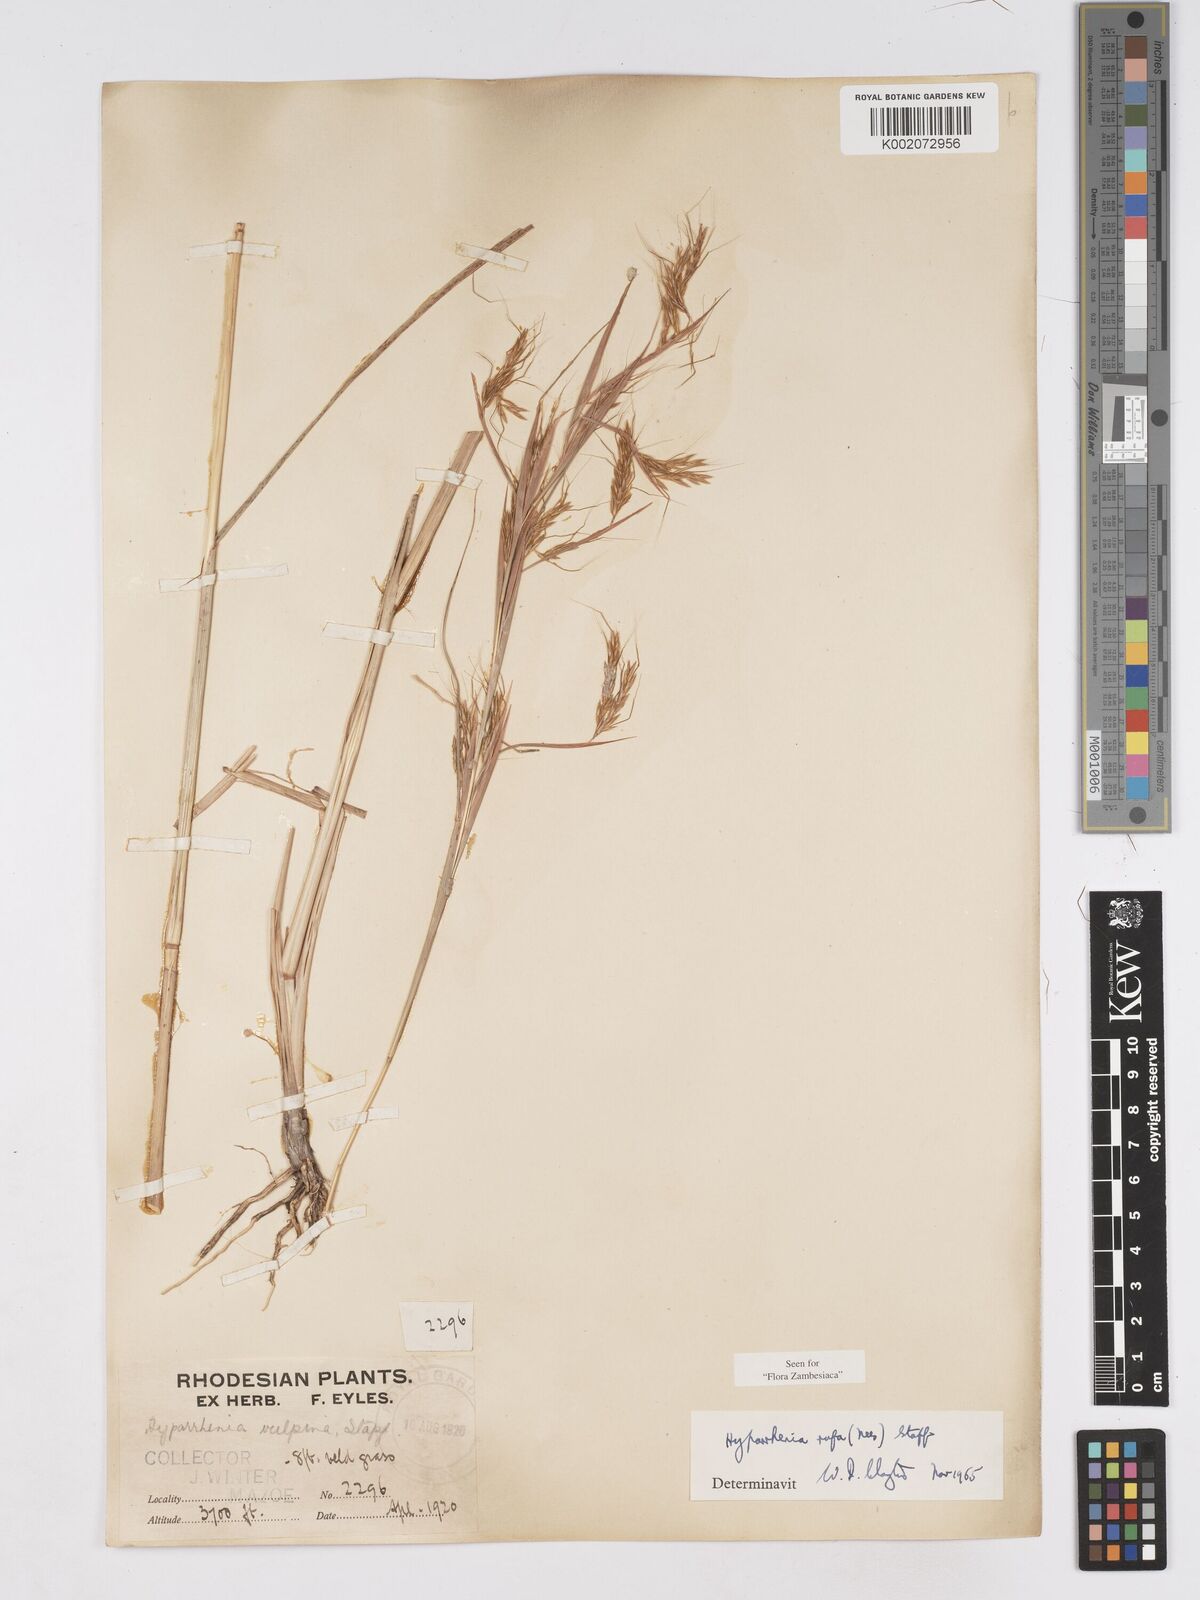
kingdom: Plantae
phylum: Tracheophyta
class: Liliopsida
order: Poales
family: Poaceae
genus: Hyparrhenia
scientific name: Hyparrhenia rufa
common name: Jaraguagrass
